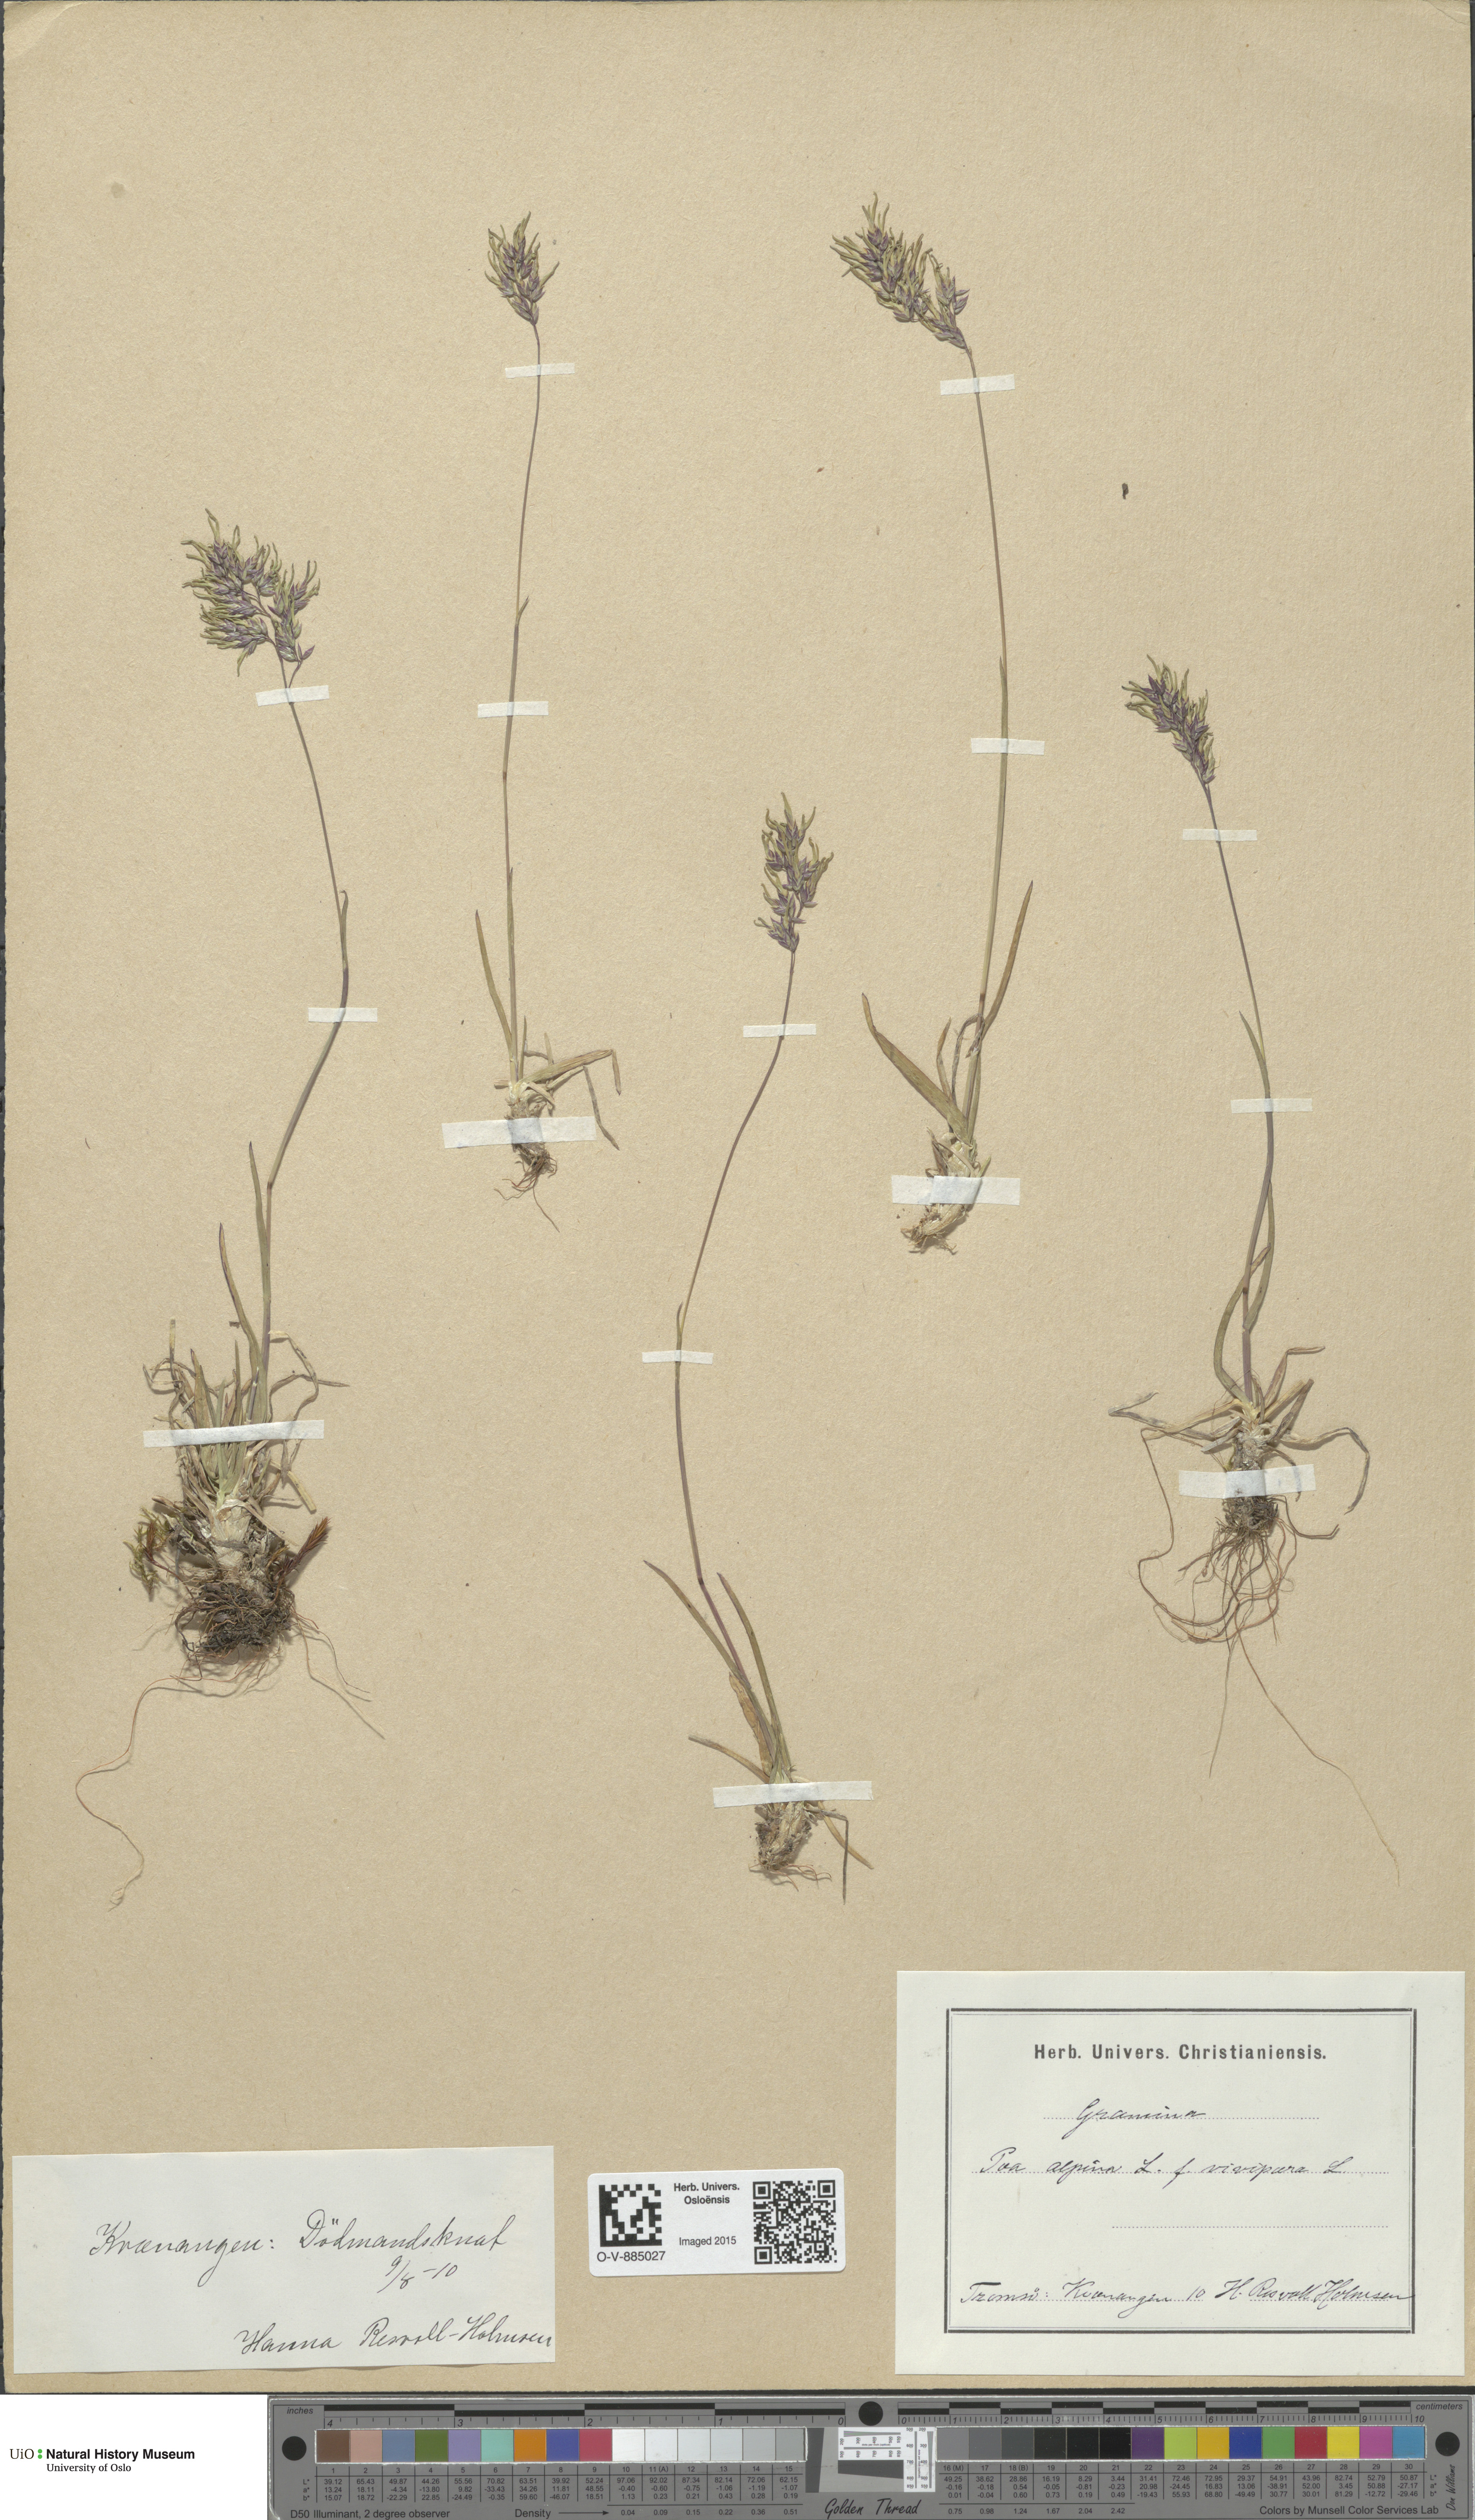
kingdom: Plantae
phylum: Tracheophyta
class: Liliopsida
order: Poales
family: Poaceae
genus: Poa
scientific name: Poa alpina
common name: Alpine bluegrass
